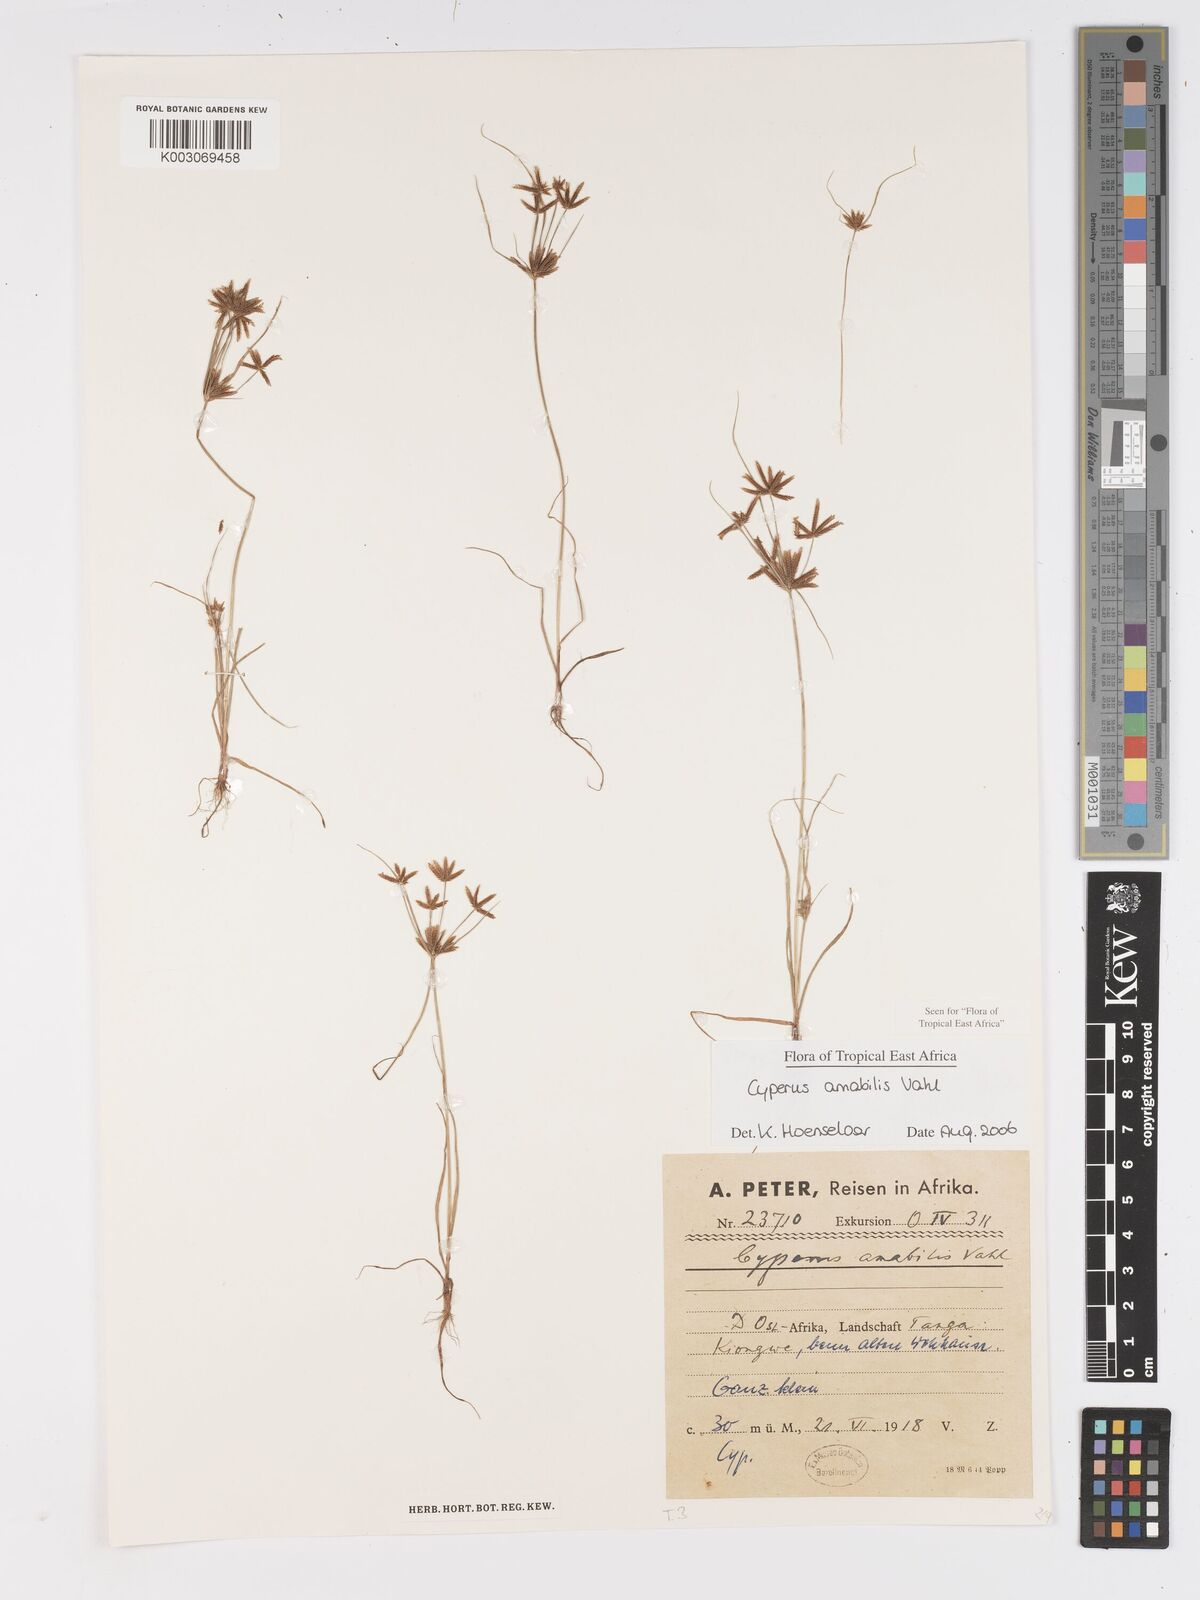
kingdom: Plantae
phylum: Tracheophyta
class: Liliopsida
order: Poales
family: Cyperaceae
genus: Cyperus
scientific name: Cyperus amabilis
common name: Foothill flat sedge
